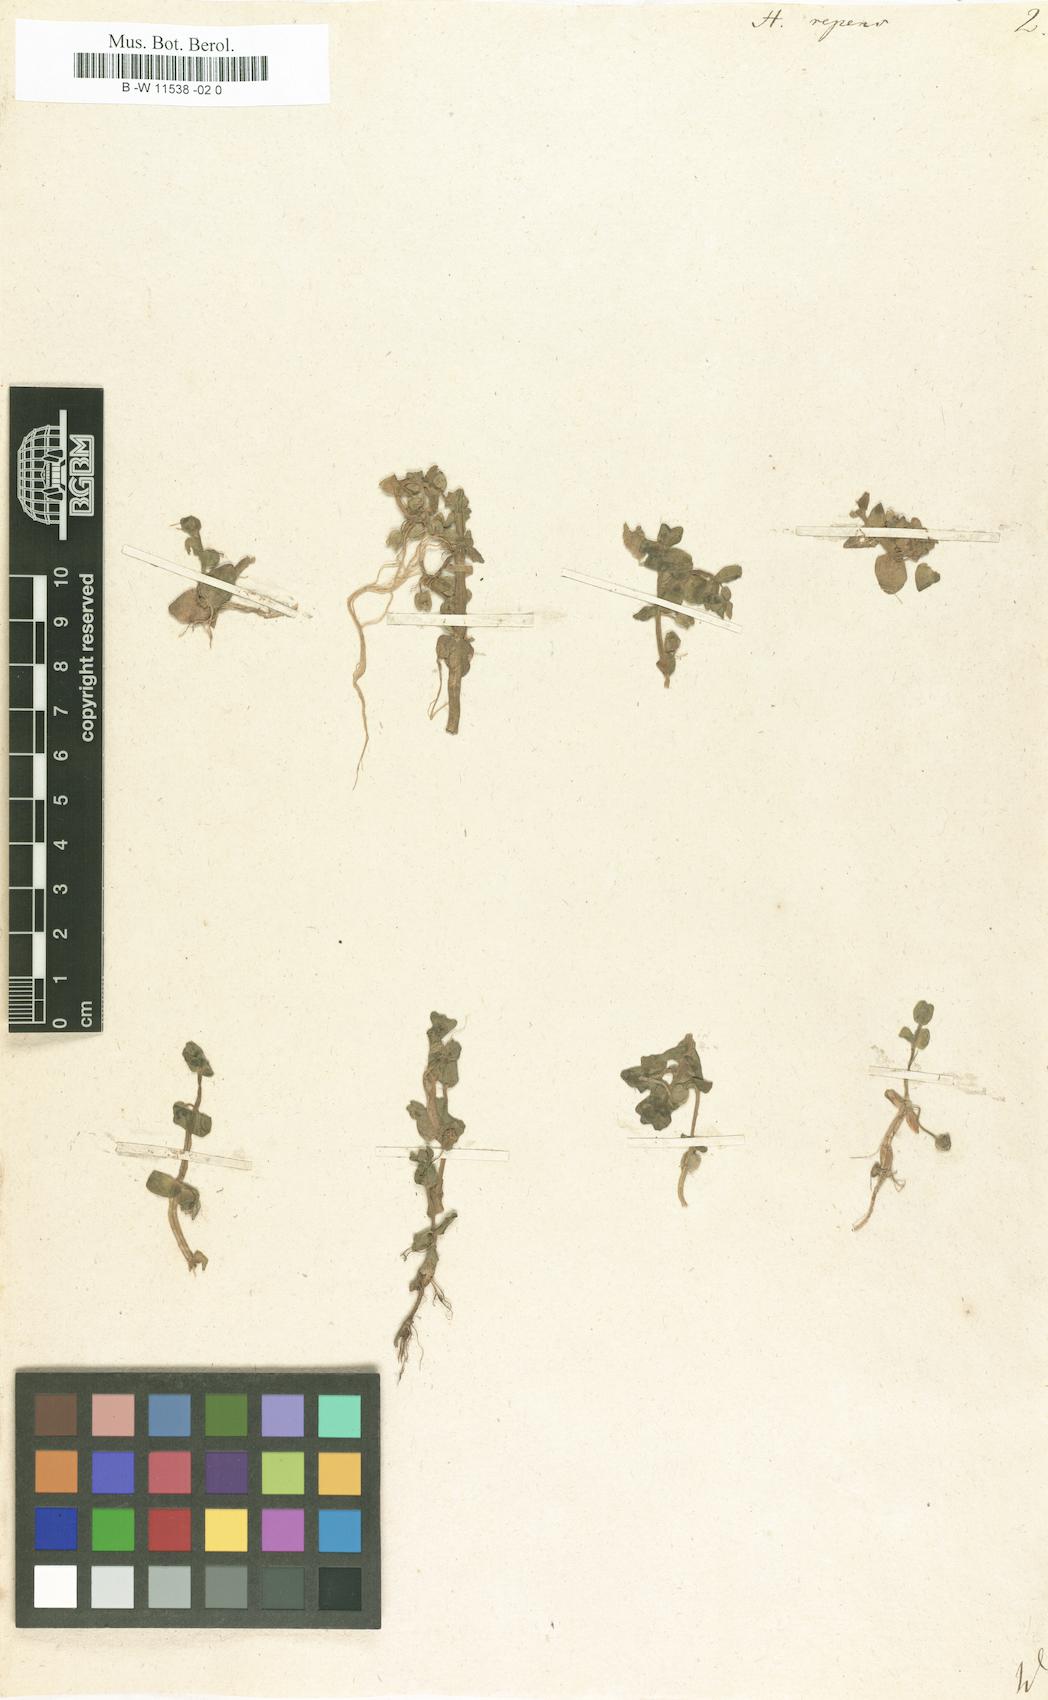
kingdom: Plantae
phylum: Tracheophyta
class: Magnoliopsida
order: Lamiales
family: Plantaginaceae
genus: Bacopa
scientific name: Bacopa reptans
